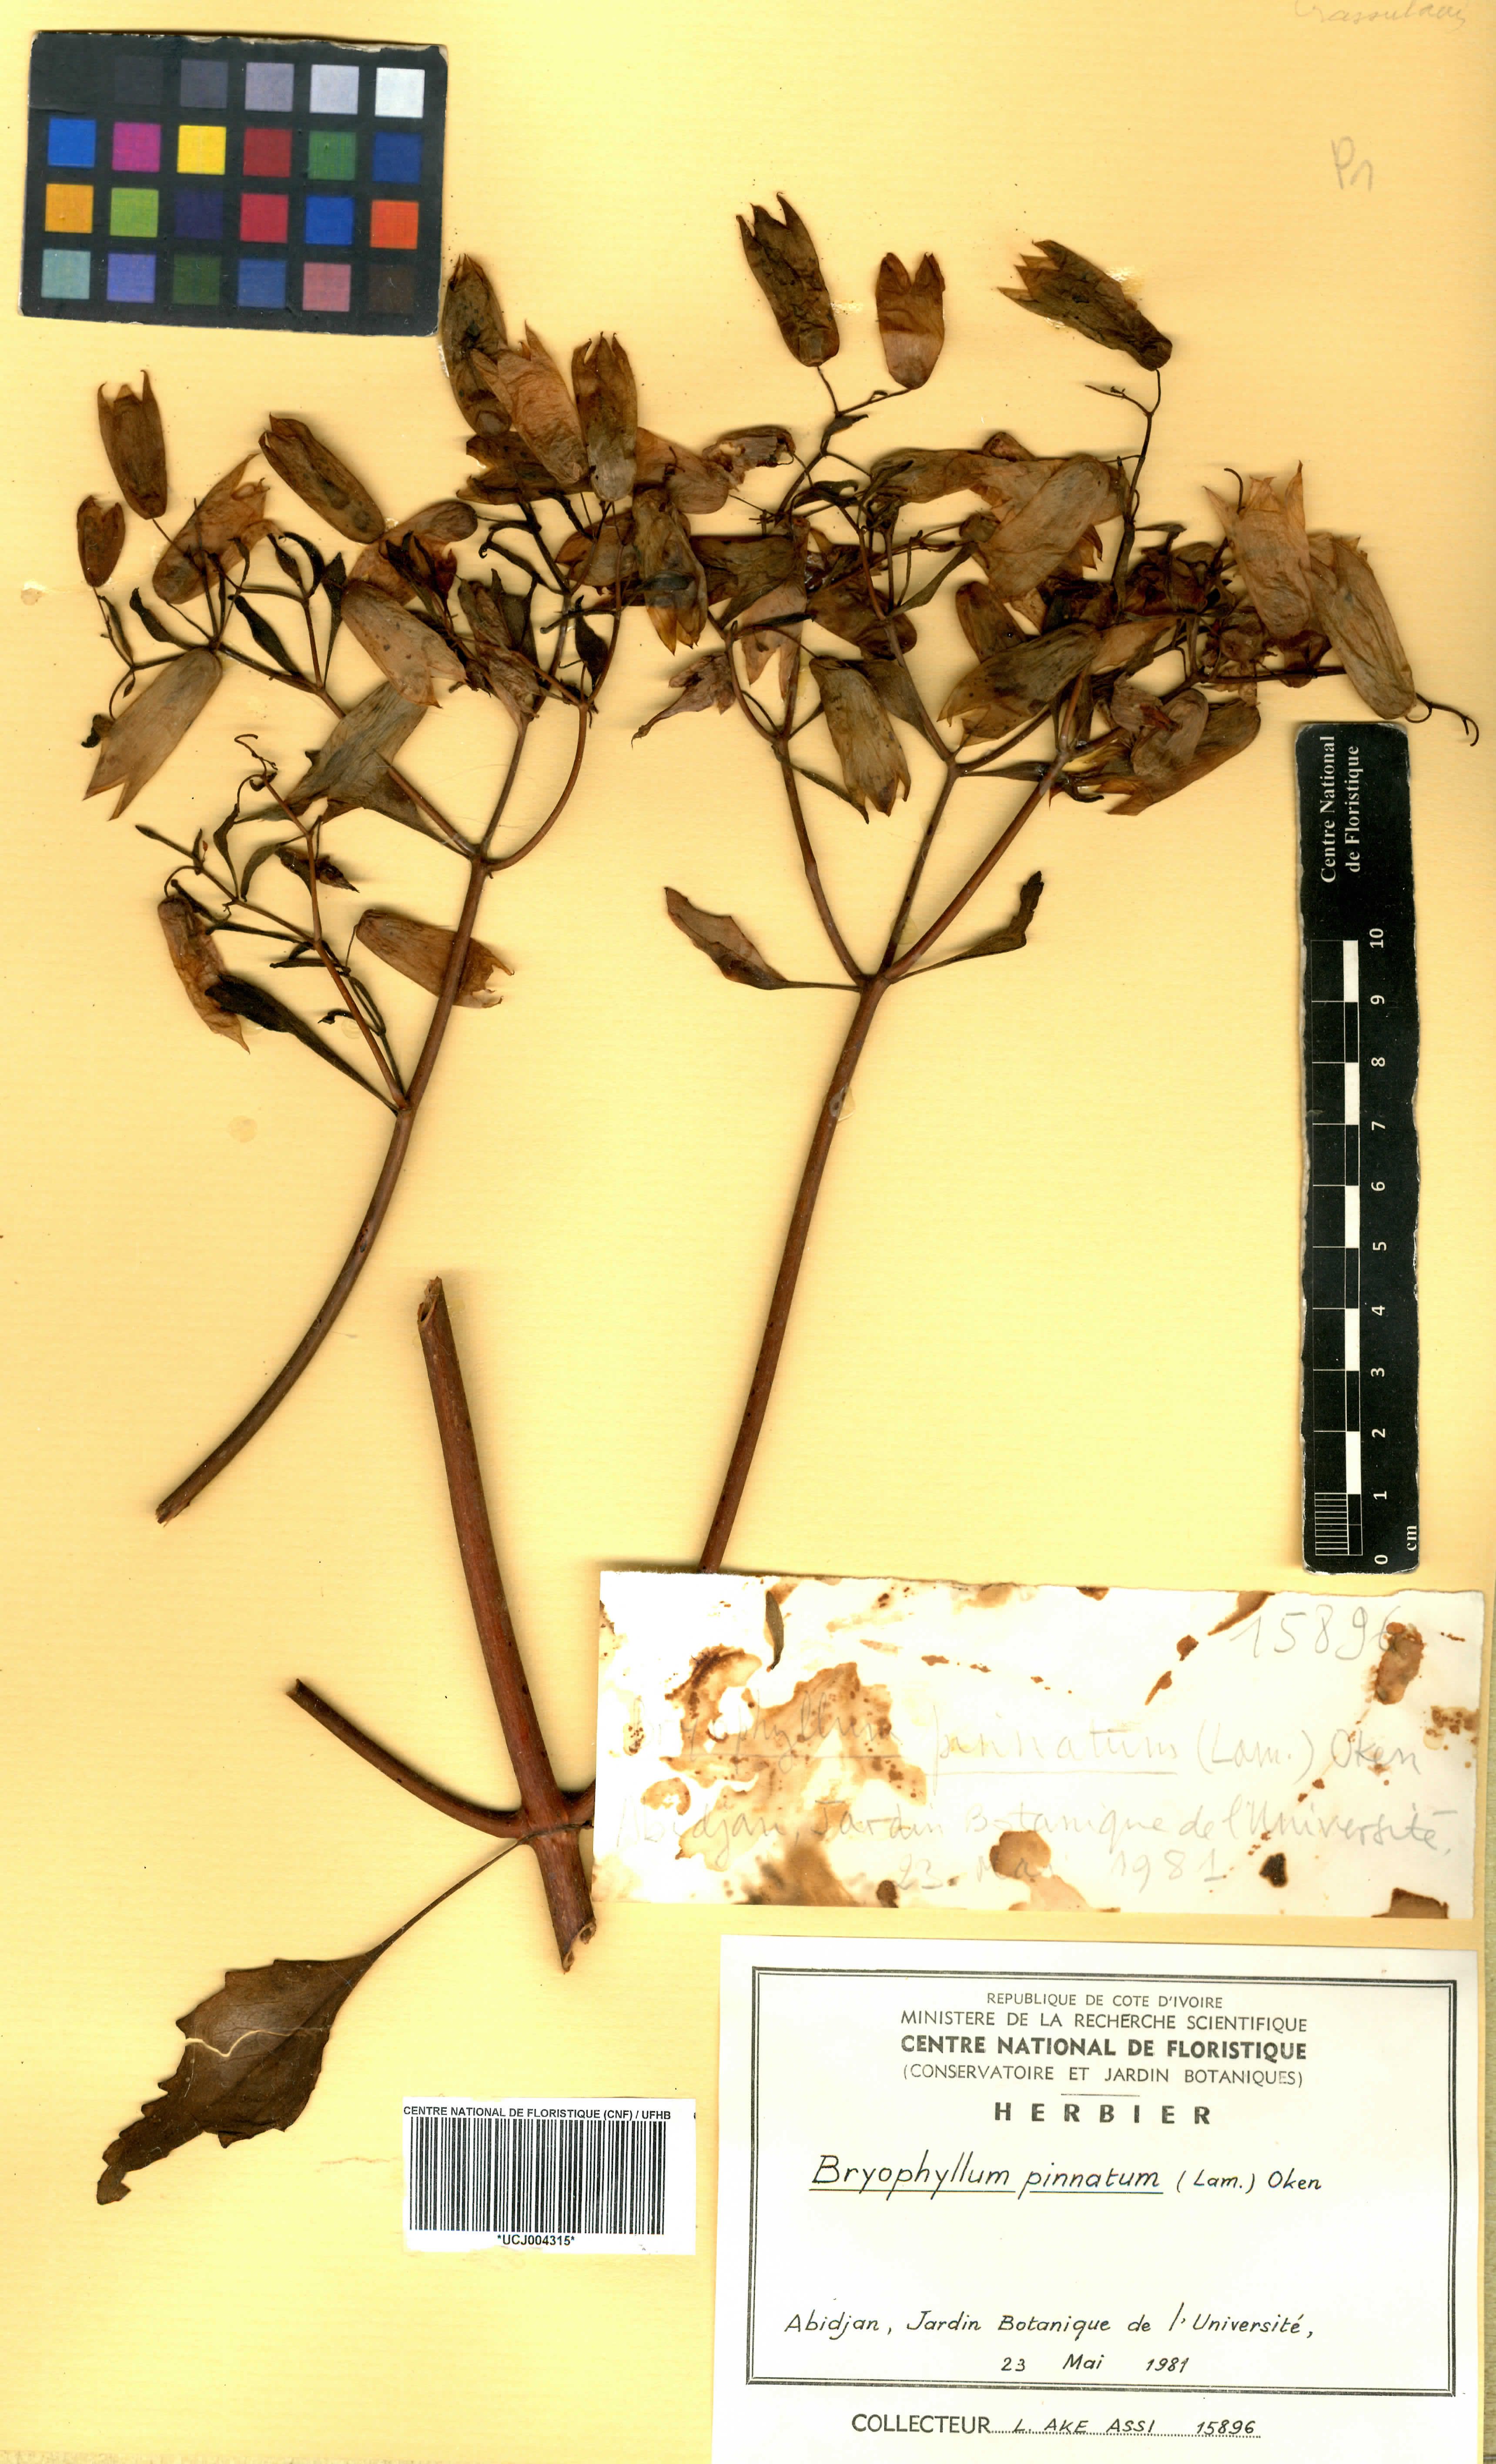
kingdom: Plantae
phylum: Tracheophyta
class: Magnoliopsida
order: Saxifragales
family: Crassulaceae
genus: Kalanchoe
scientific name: Kalanchoe pinnata
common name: Cathedral bells
